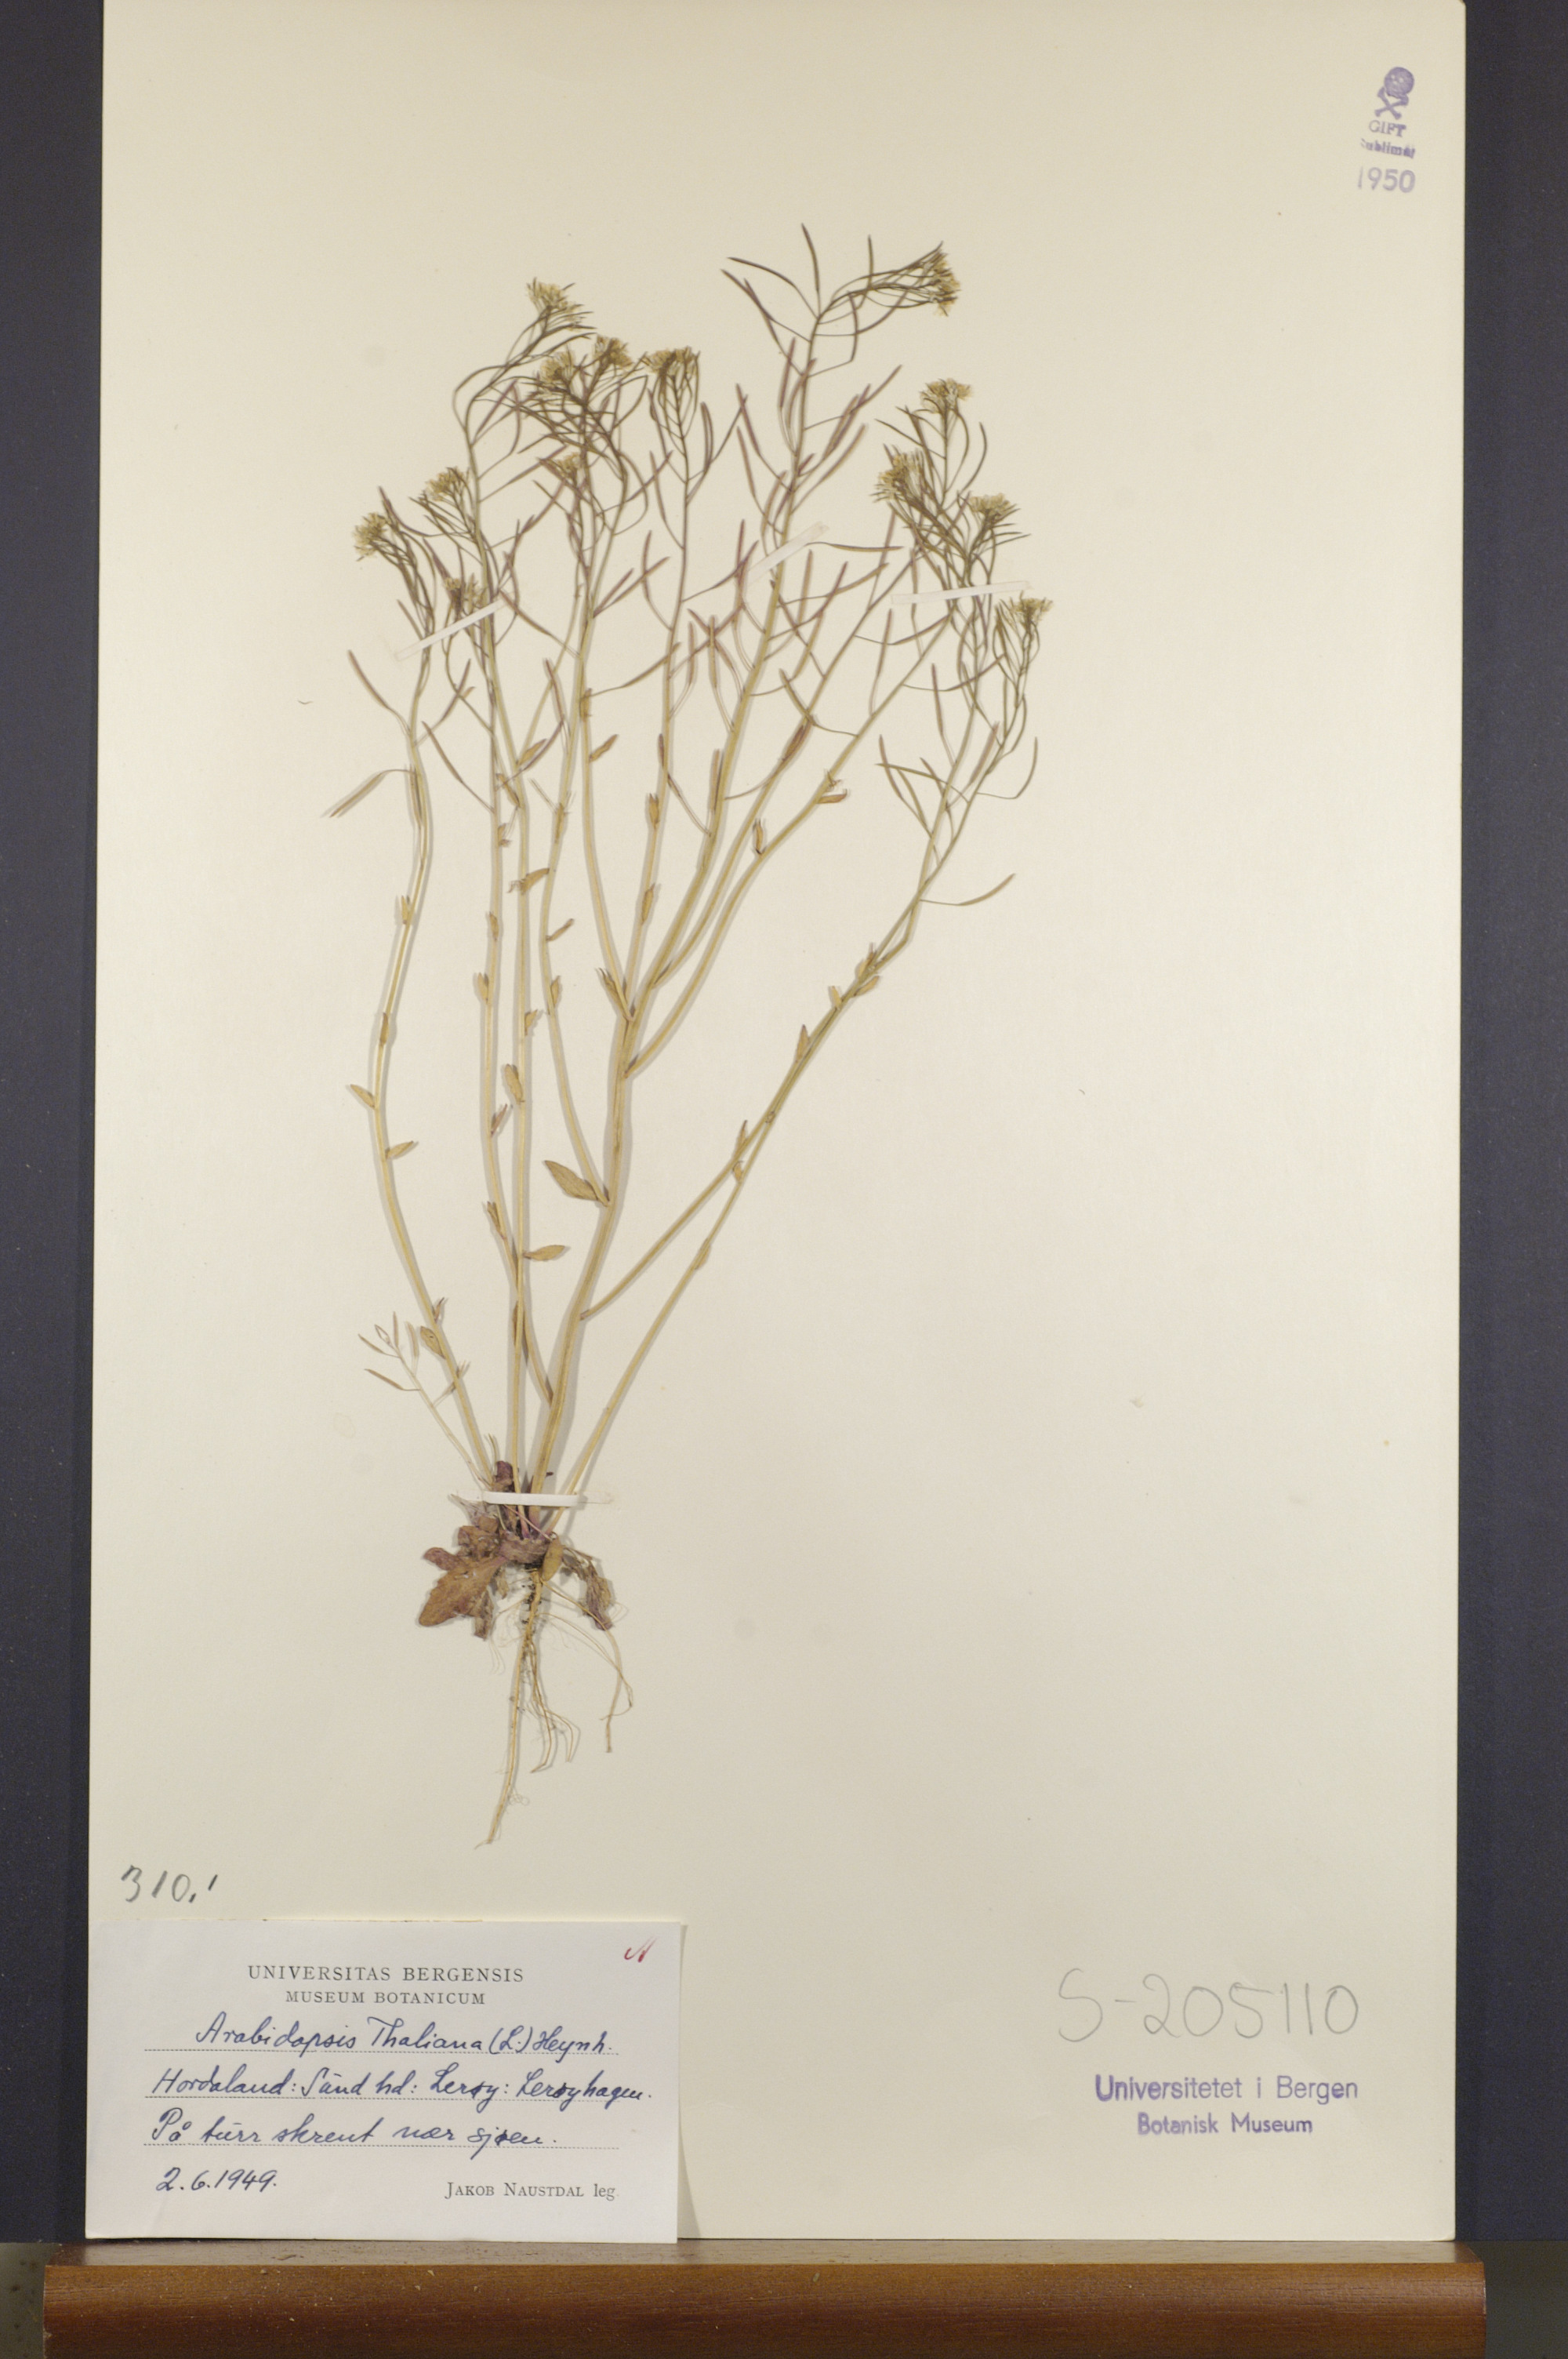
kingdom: Plantae
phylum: Tracheophyta
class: Magnoliopsida
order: Brassicales
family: Brassicaceae
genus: Arabidopsis
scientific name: Arabidopsis thaliana
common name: Thale cress
